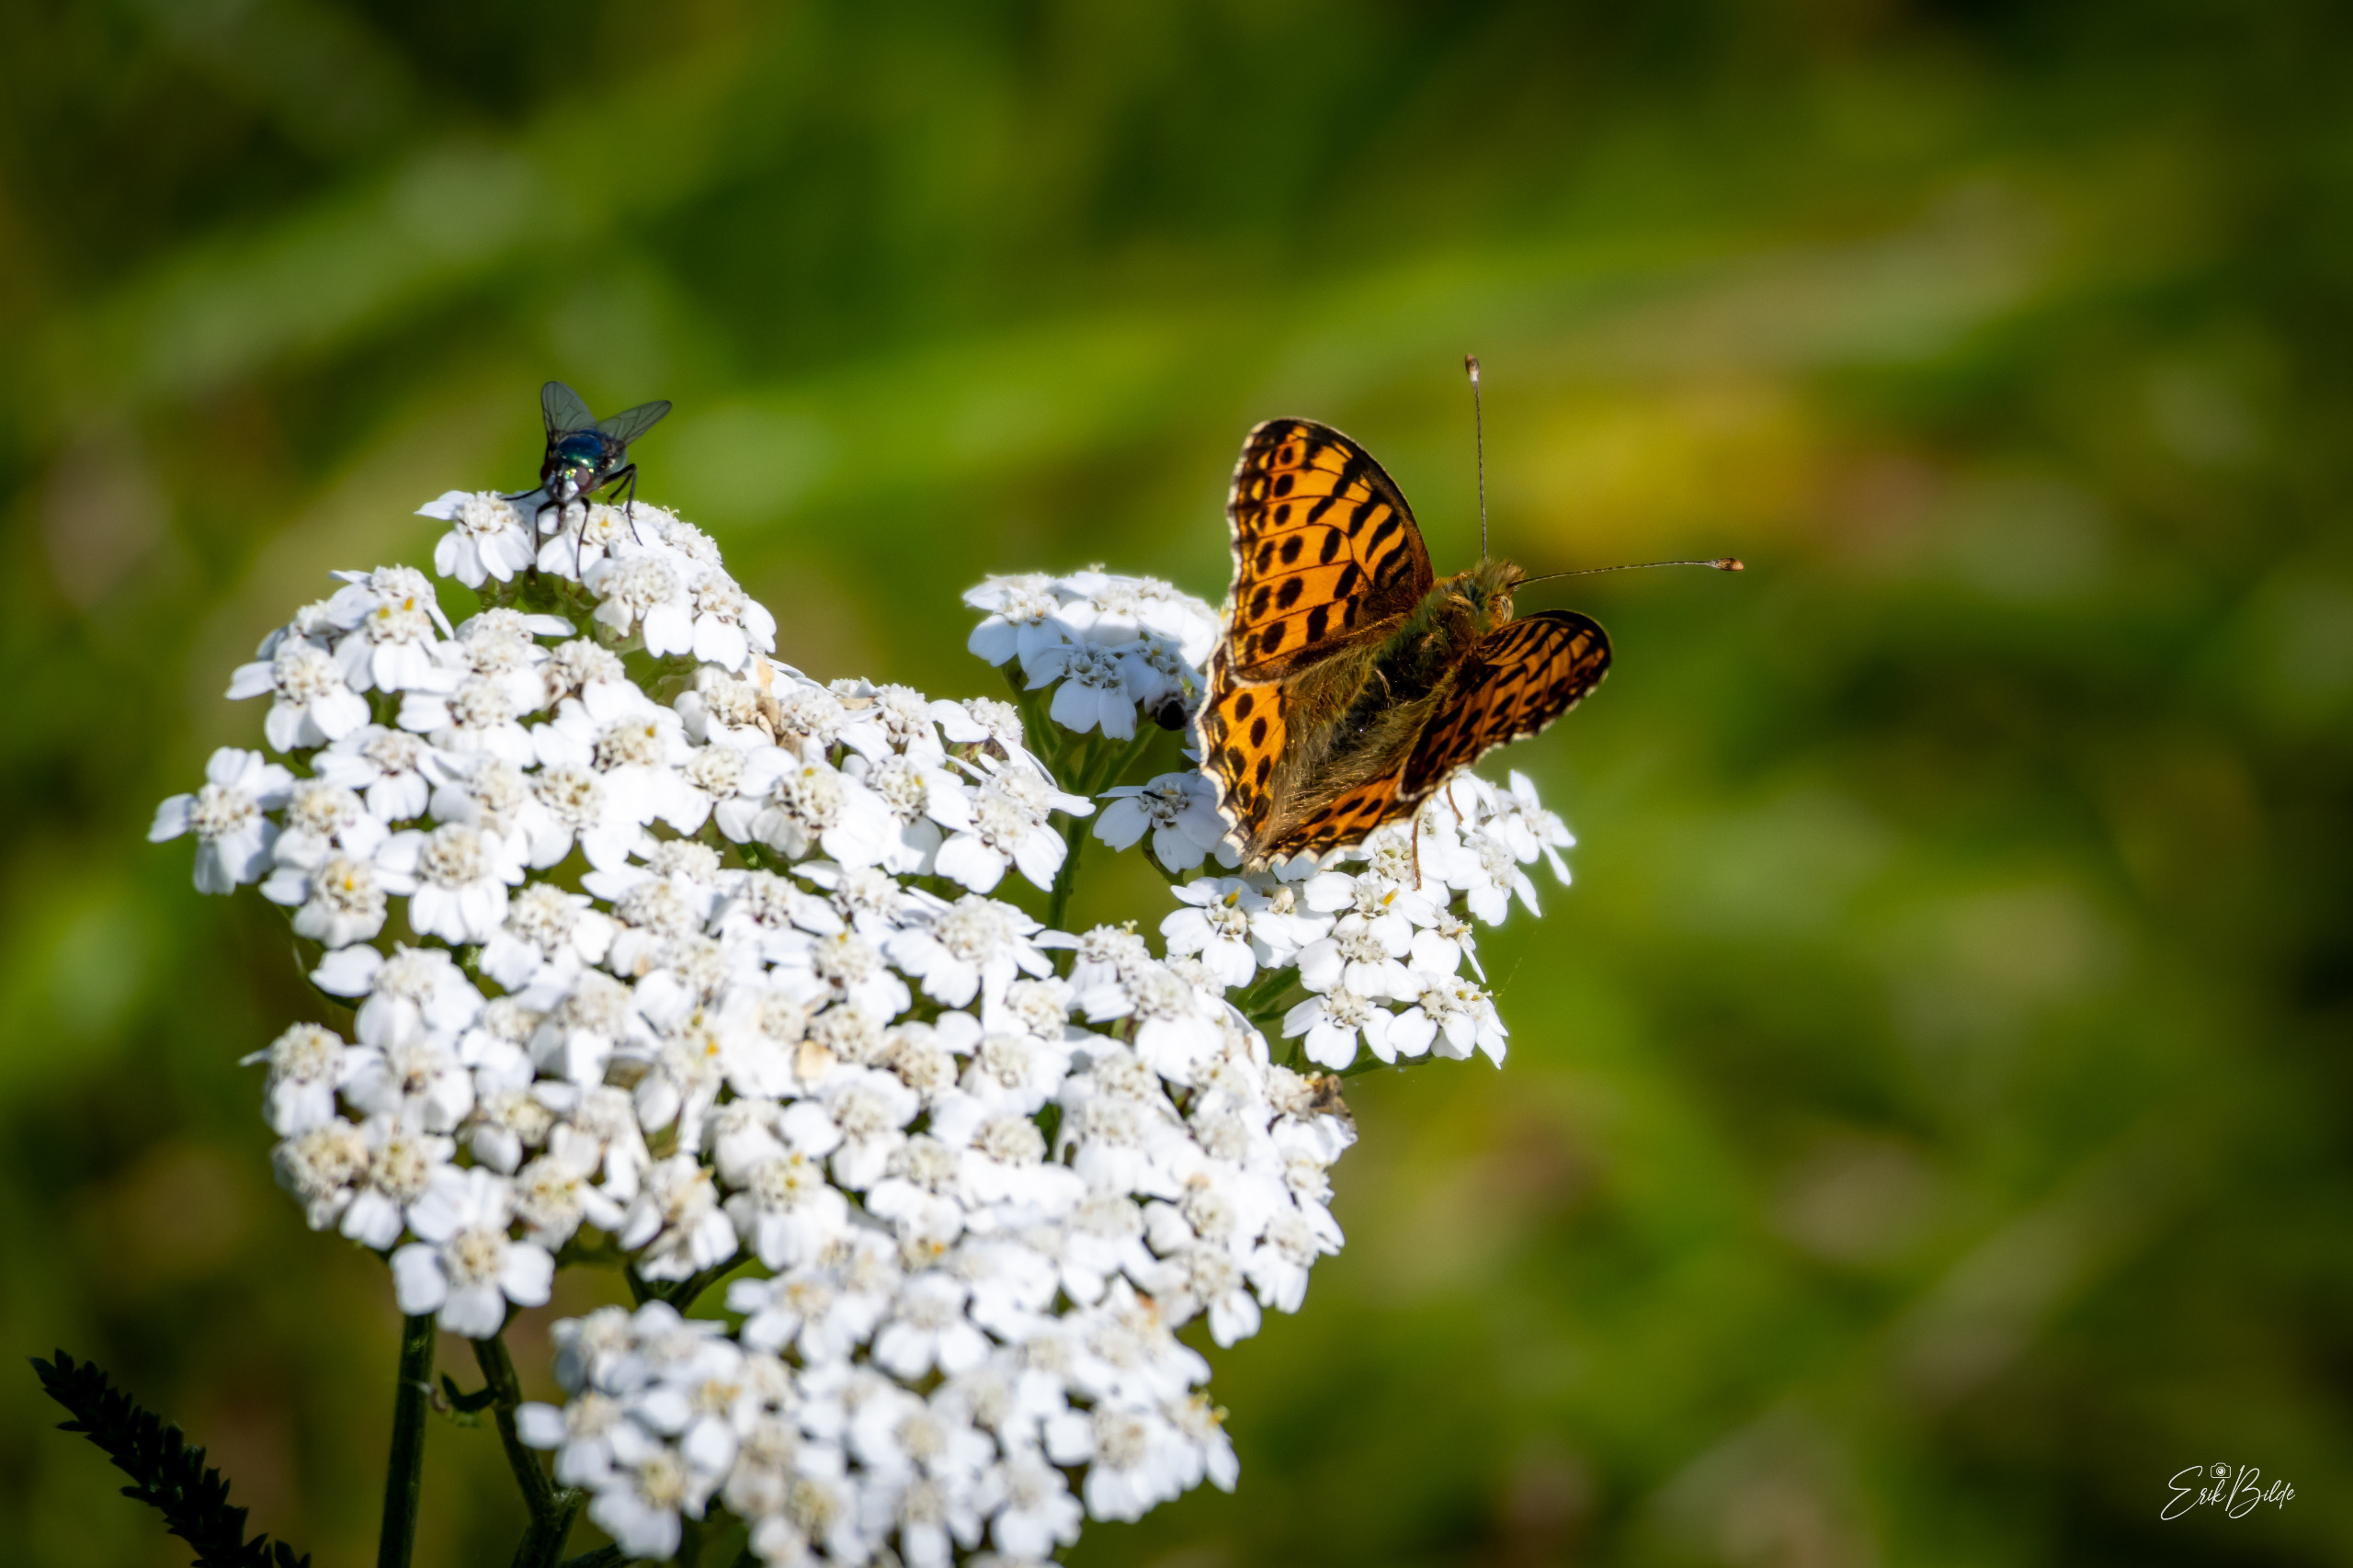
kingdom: Animalia
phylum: Arthropoda
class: Insecta
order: Lepidoptera
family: Nymphalidae
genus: Issoria
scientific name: Issoria lathonia
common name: Storplettet perlemorsommerfugl
